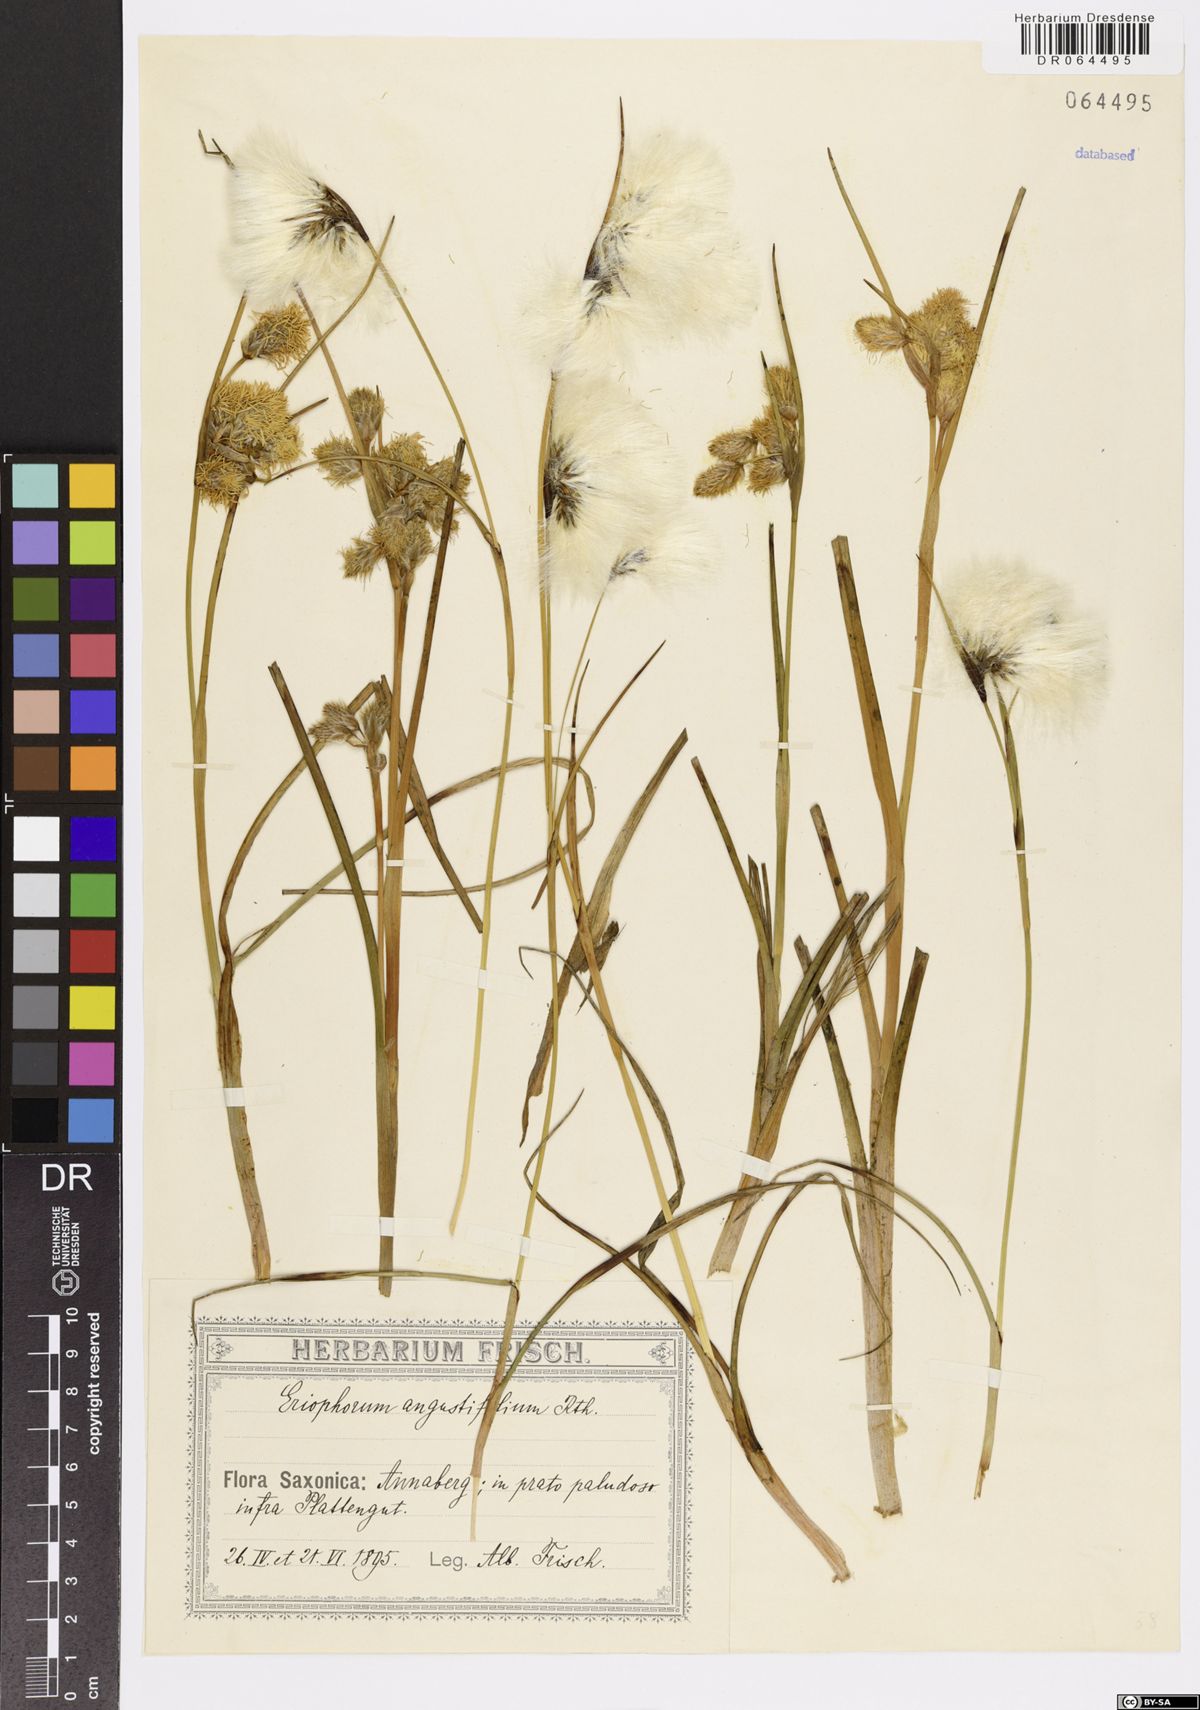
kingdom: Plantae
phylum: Tracheophyta
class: Liliopsida
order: Poales
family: Cyperaceae
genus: Eriophorum
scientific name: Eriophorum angustifolium
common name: Common cottongrass
